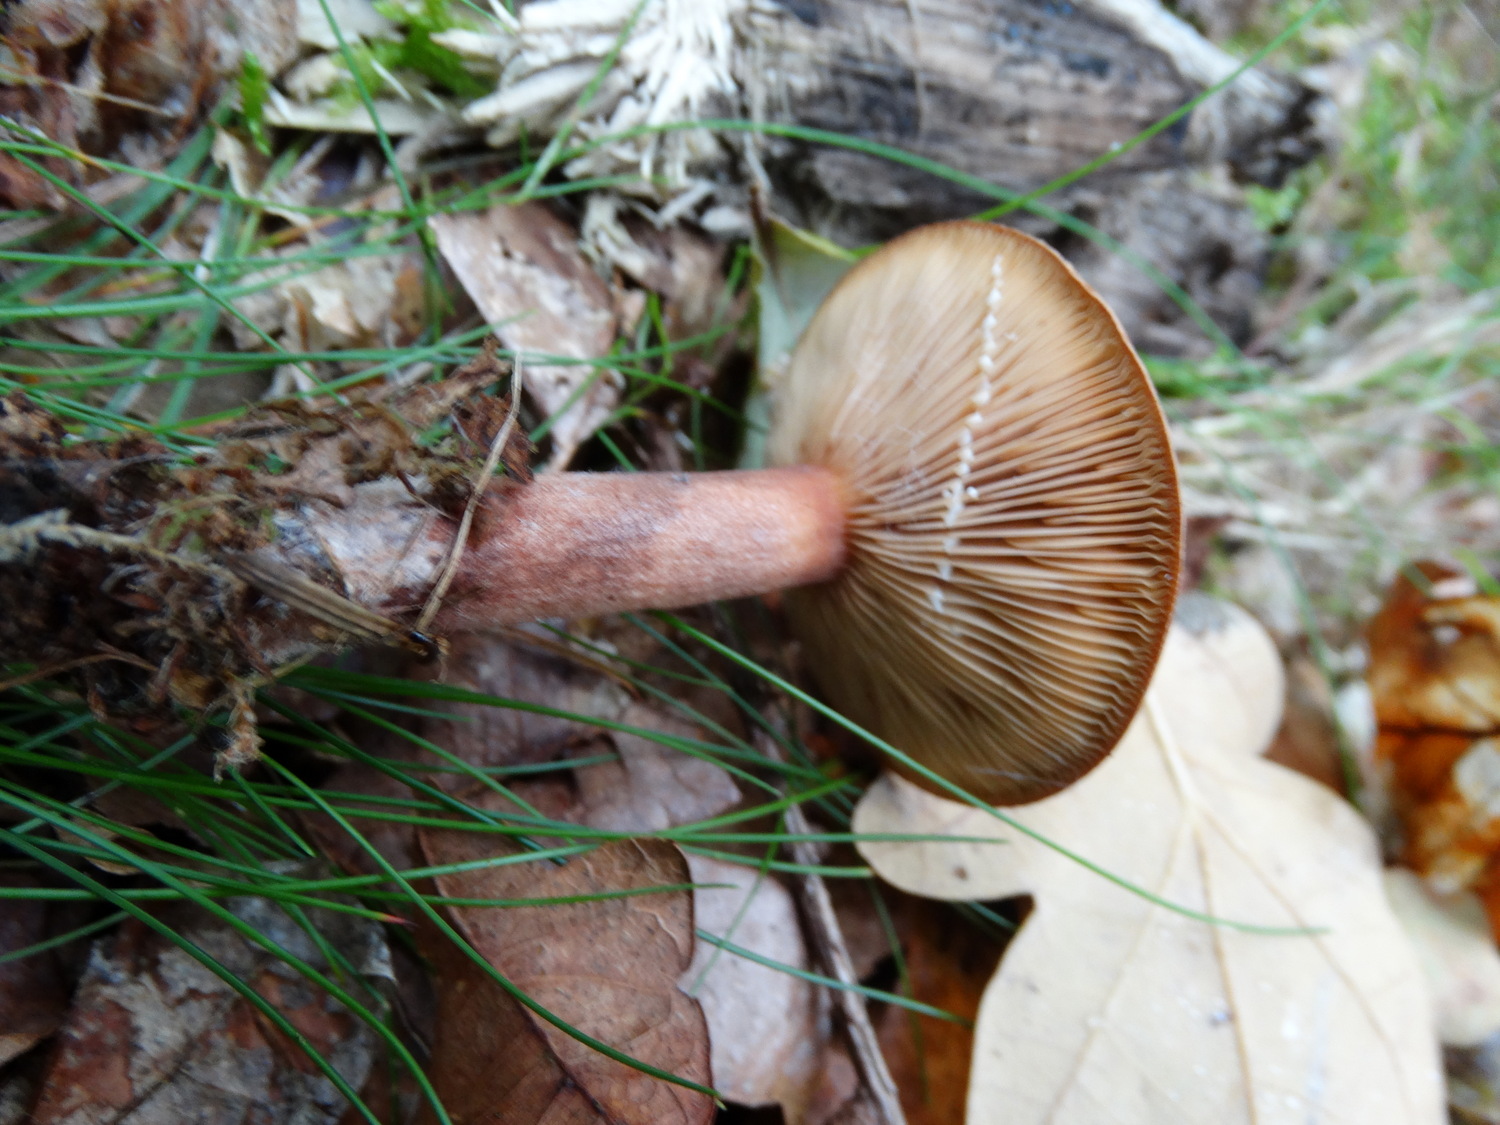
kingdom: Fungi
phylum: Basidiomycota
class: Agaricomycetes
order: Russulales
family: Russulaceae
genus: Lactarius
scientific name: Lactarius quietus
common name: ege-mælkehat
